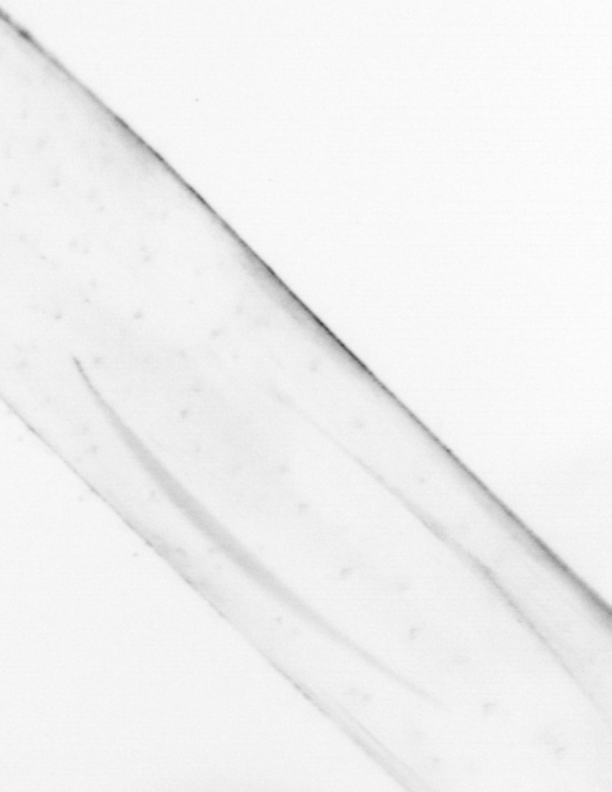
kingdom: Animalia
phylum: Chaetognatha
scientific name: Chaetognatha
